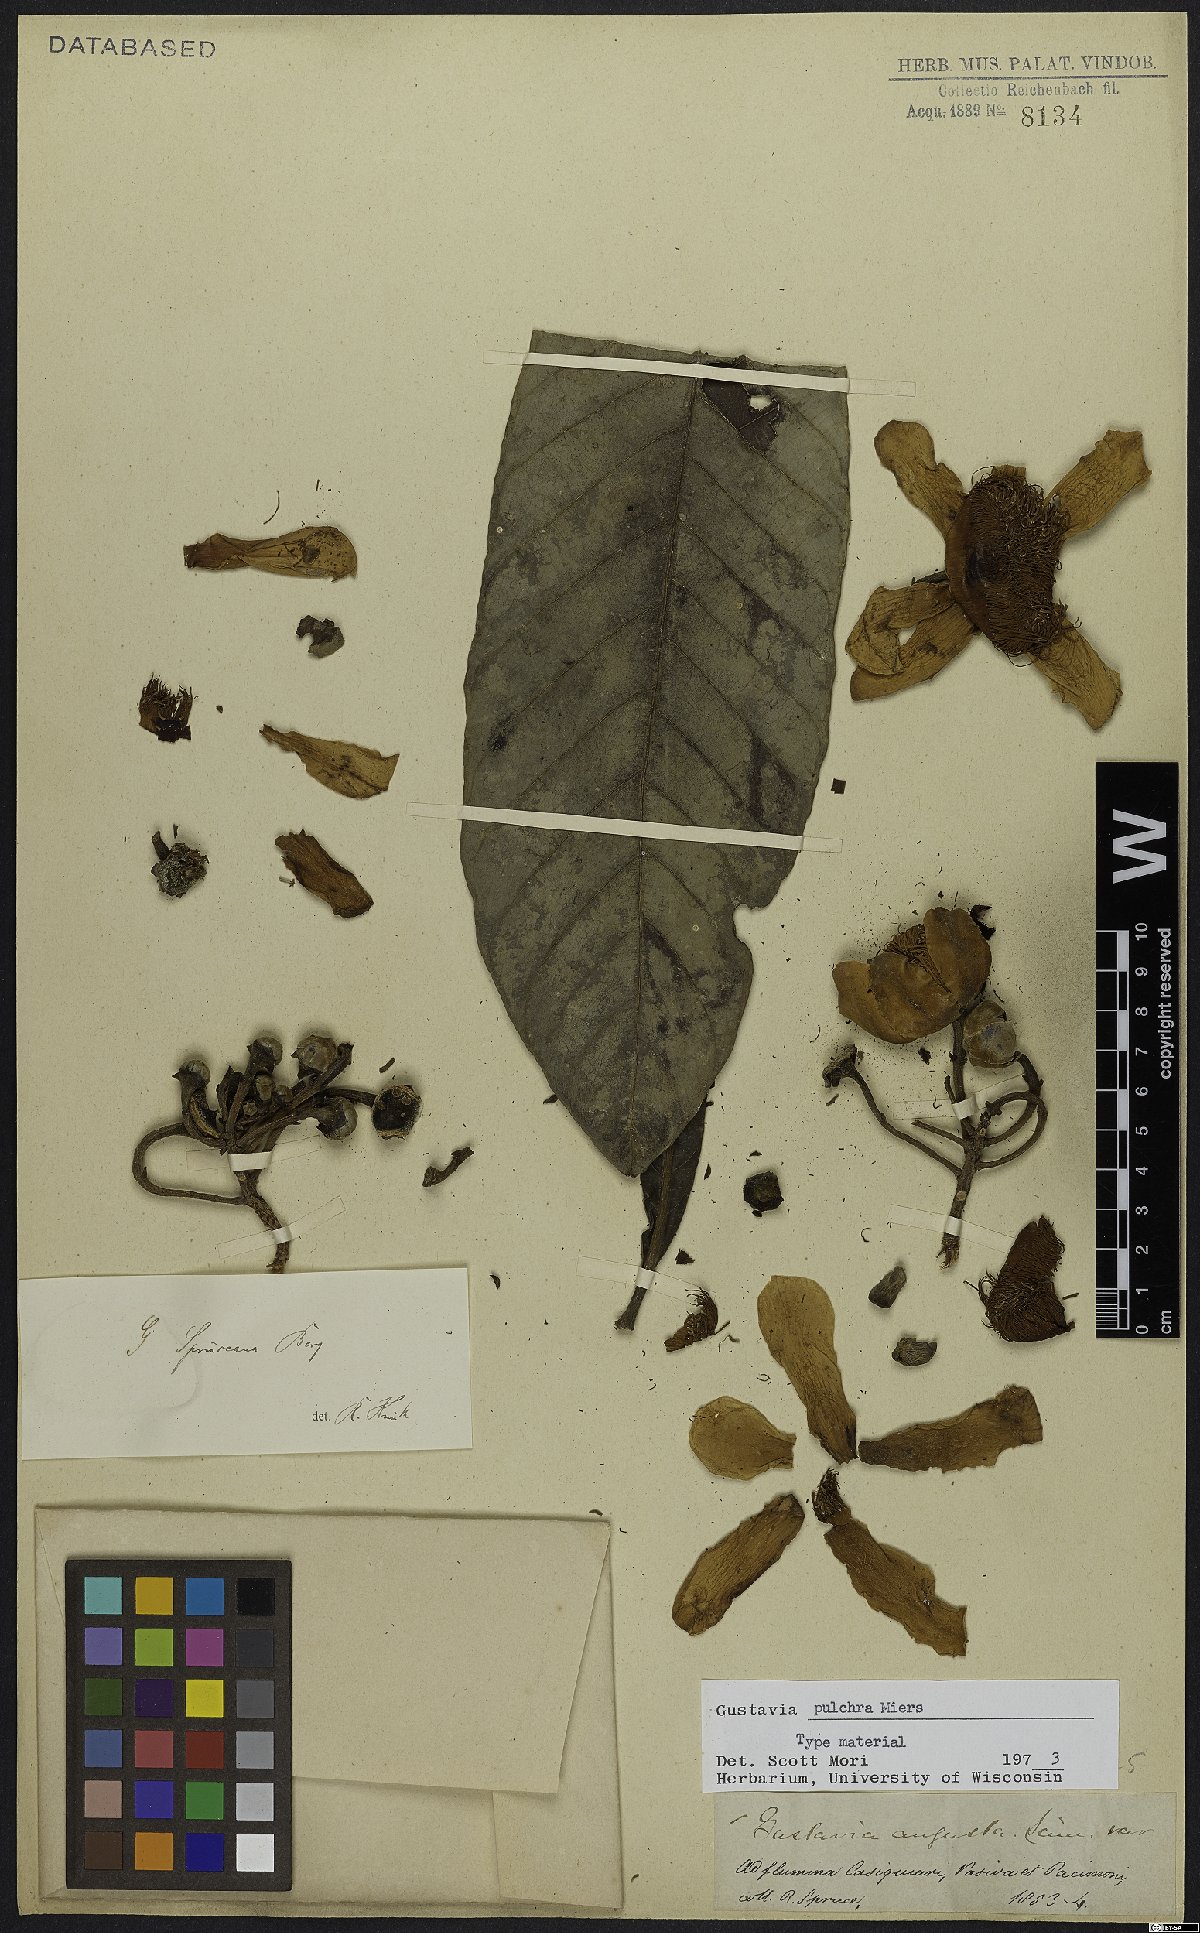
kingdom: Plantae
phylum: Tracheophyta
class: Magnoliopsida
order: Ericales
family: Lecythidaceae
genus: Gustavia
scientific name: Gustavia pulchra
